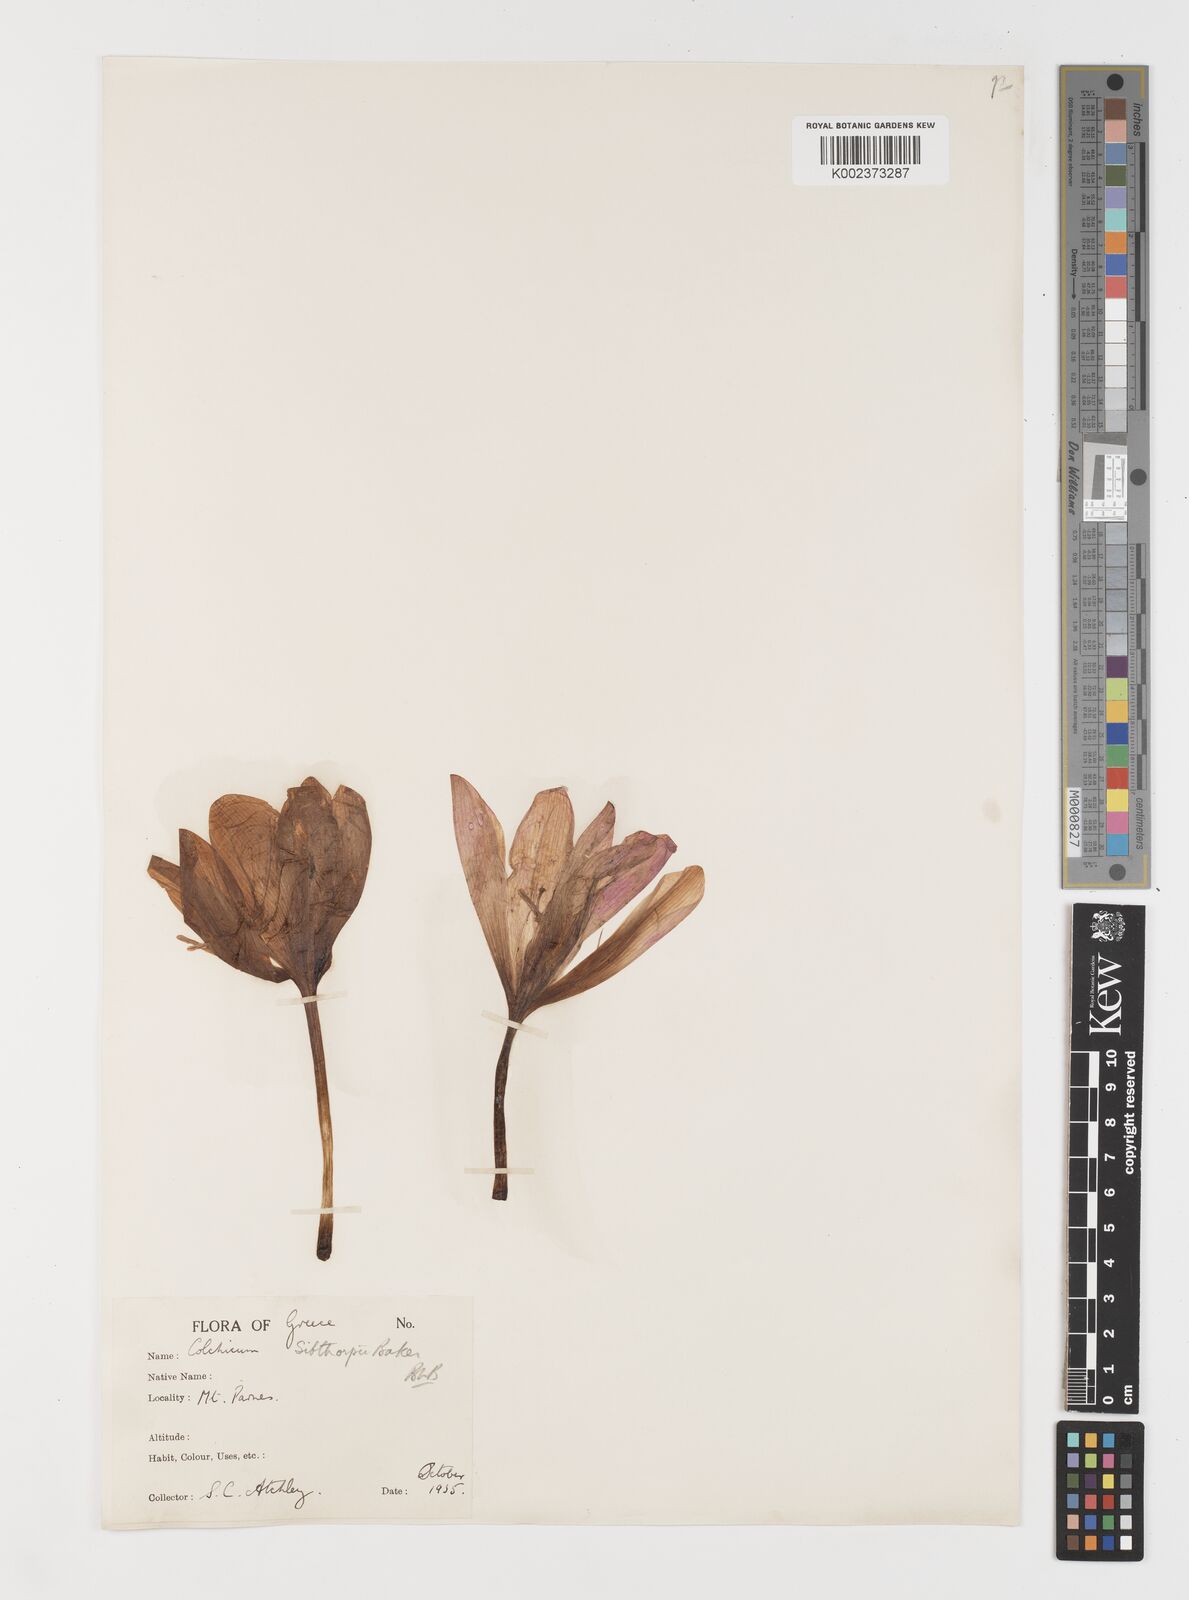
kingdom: Plantae
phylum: Tracheophyta
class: Liliopsida
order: Liliales
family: Colchicaceae
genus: Colchicum
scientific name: Colchicum bivonae
